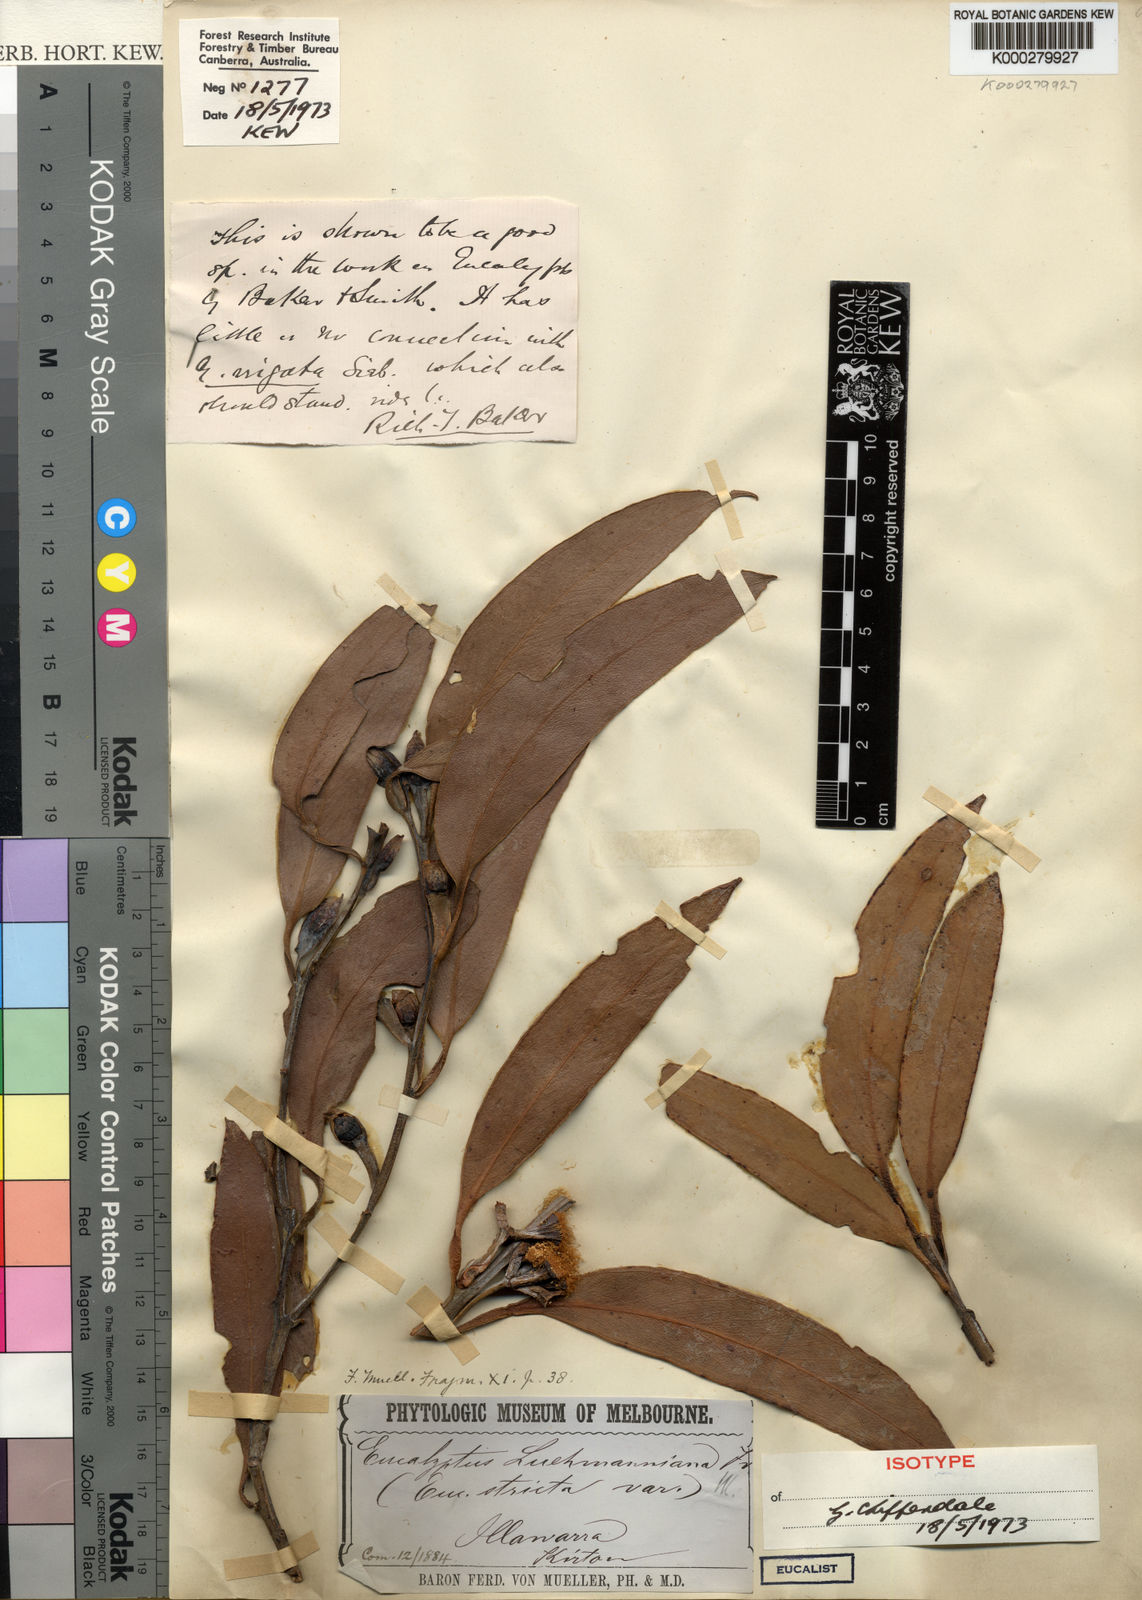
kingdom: Plantae
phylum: Tracheophyta
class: Magnoliopsida
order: Myrtales
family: Myrtaceae
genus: Eucalyptus
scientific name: Eucalyptus luehmanniana
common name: Yellow-top mallee ash
